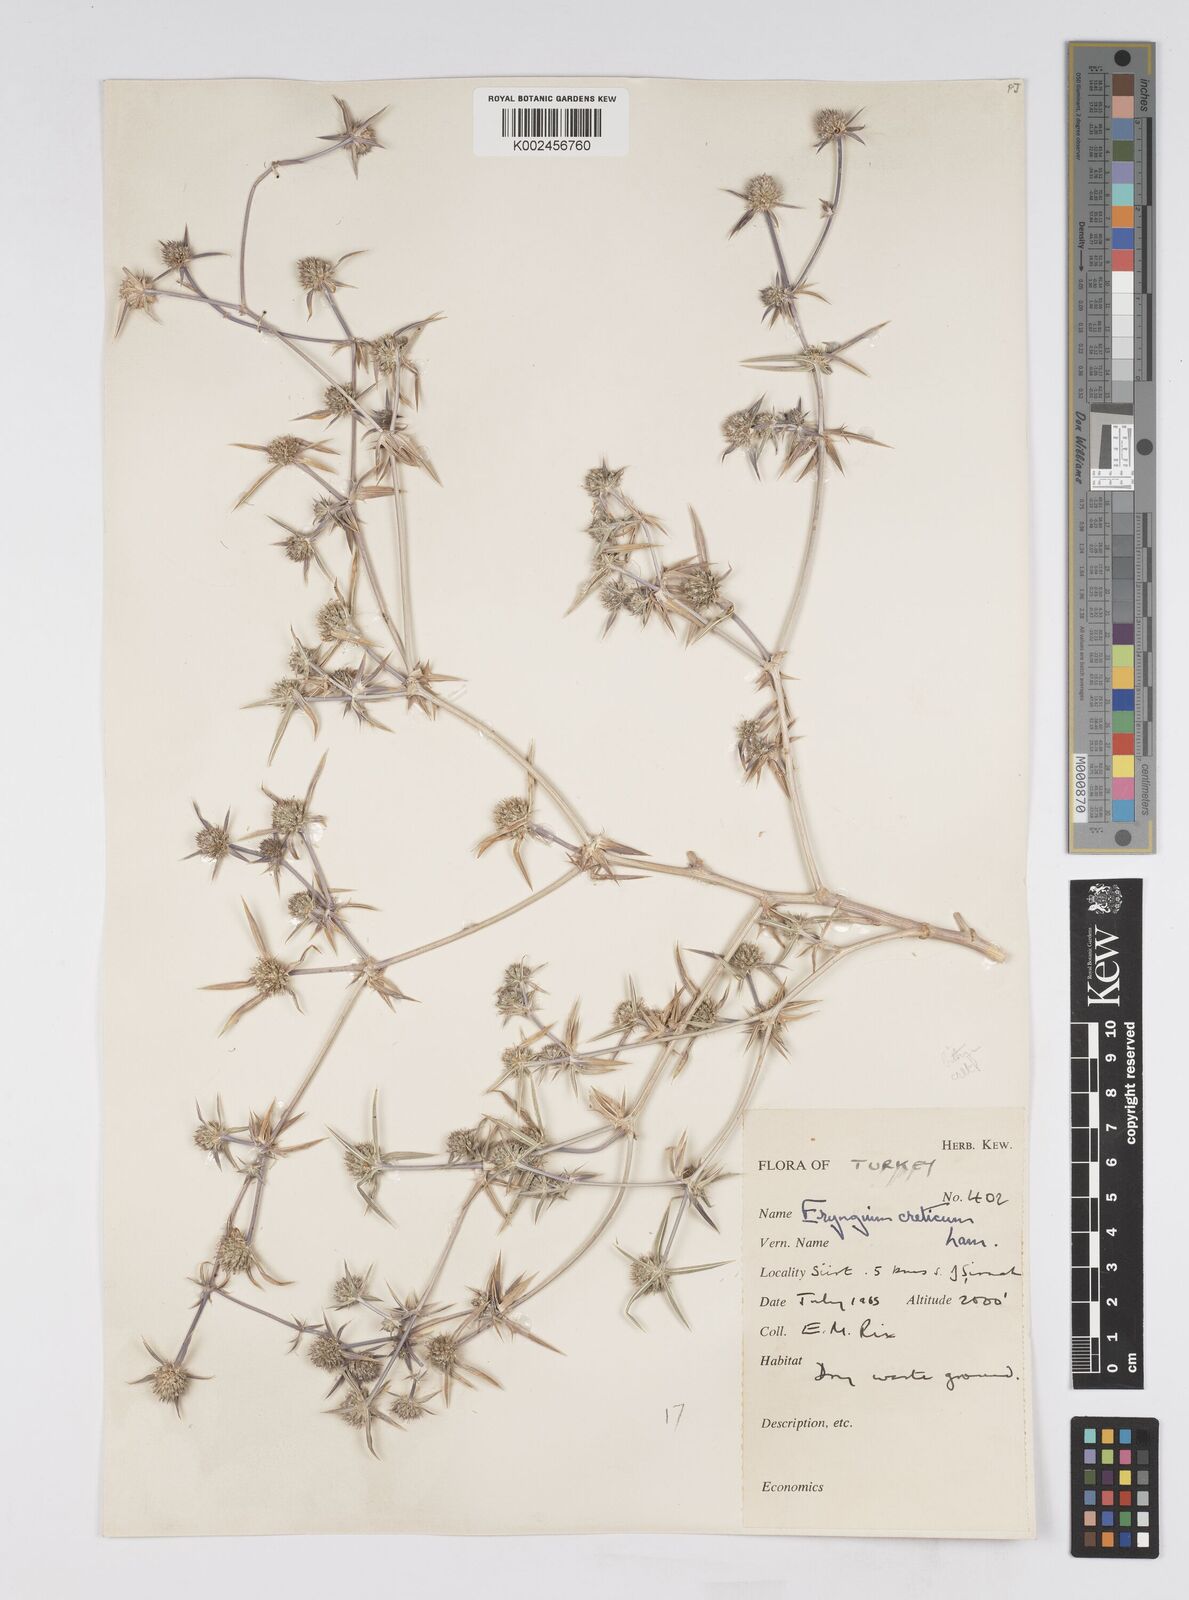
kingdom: Plantae
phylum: Tracheophyta
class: Magnoliopsida
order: Apiales
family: Apiaceae
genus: Eryngium
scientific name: Eryngium creticum
